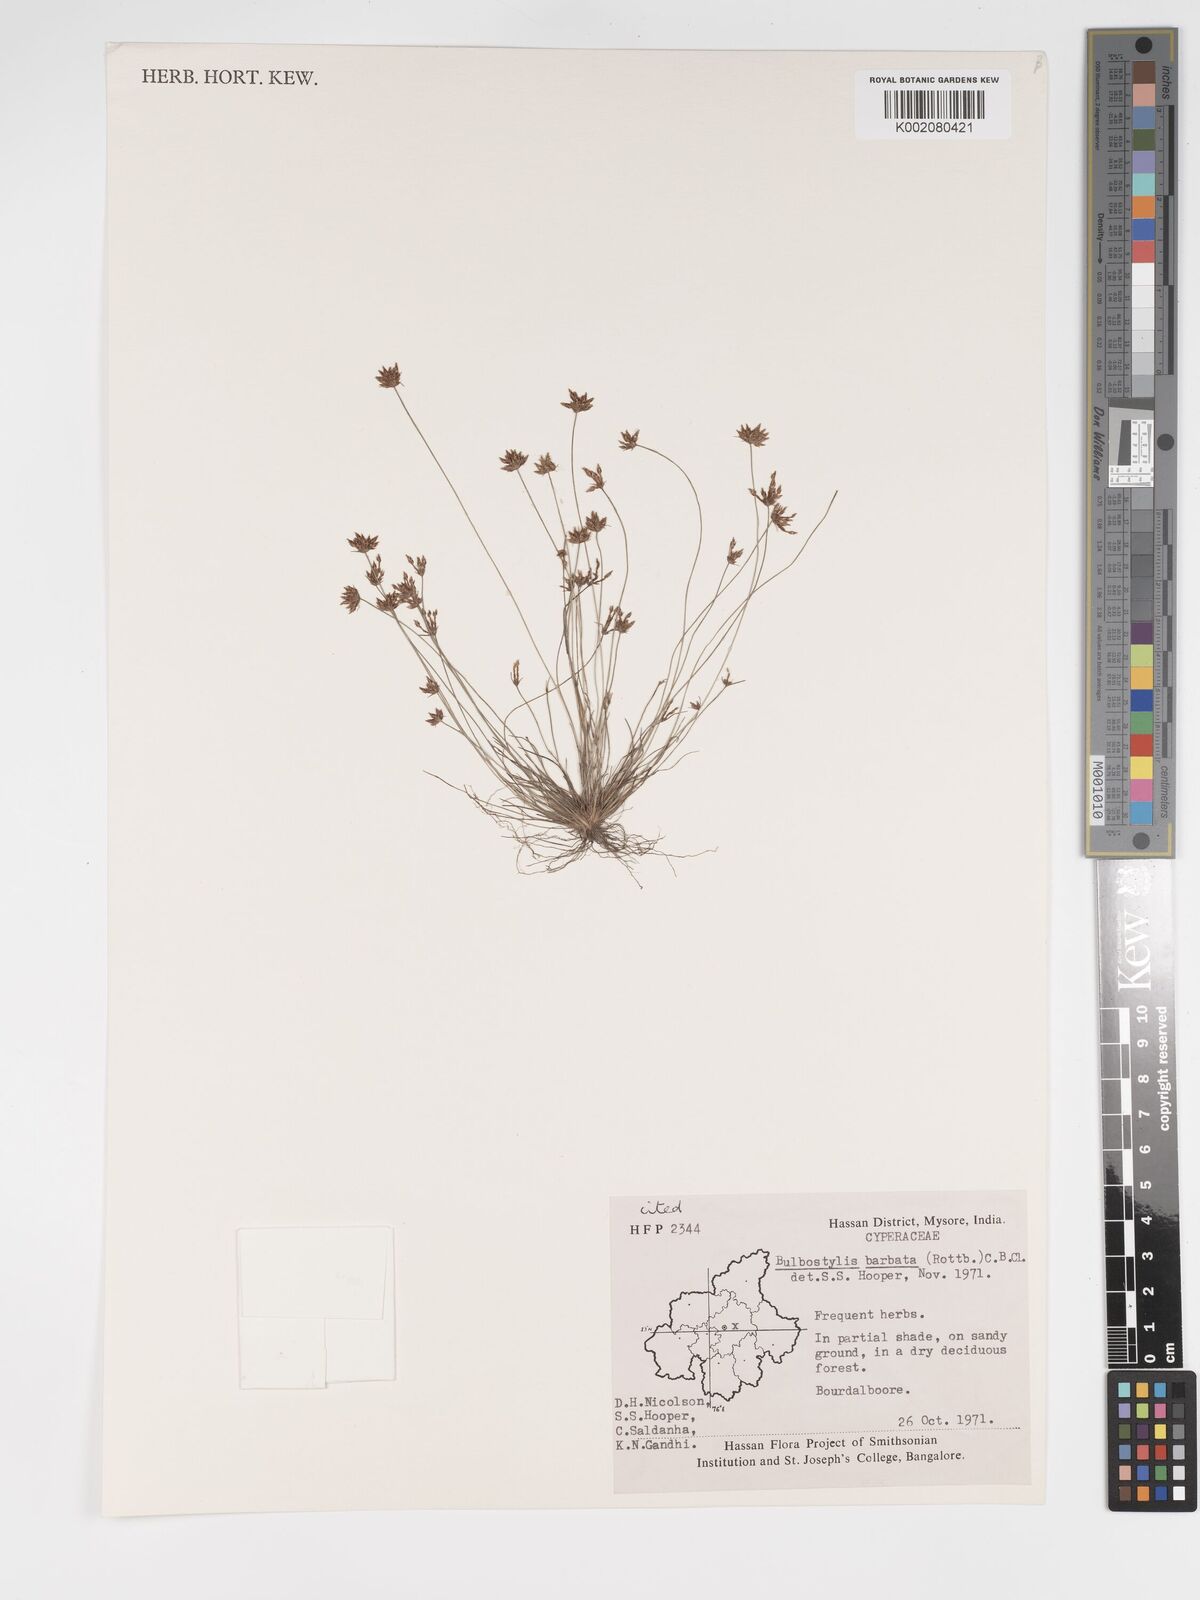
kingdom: Plantae
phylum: Tracheophyta
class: Liliopsida
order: Poales
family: Cyperaceae
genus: Bulbostylis
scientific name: Bulbostylis
